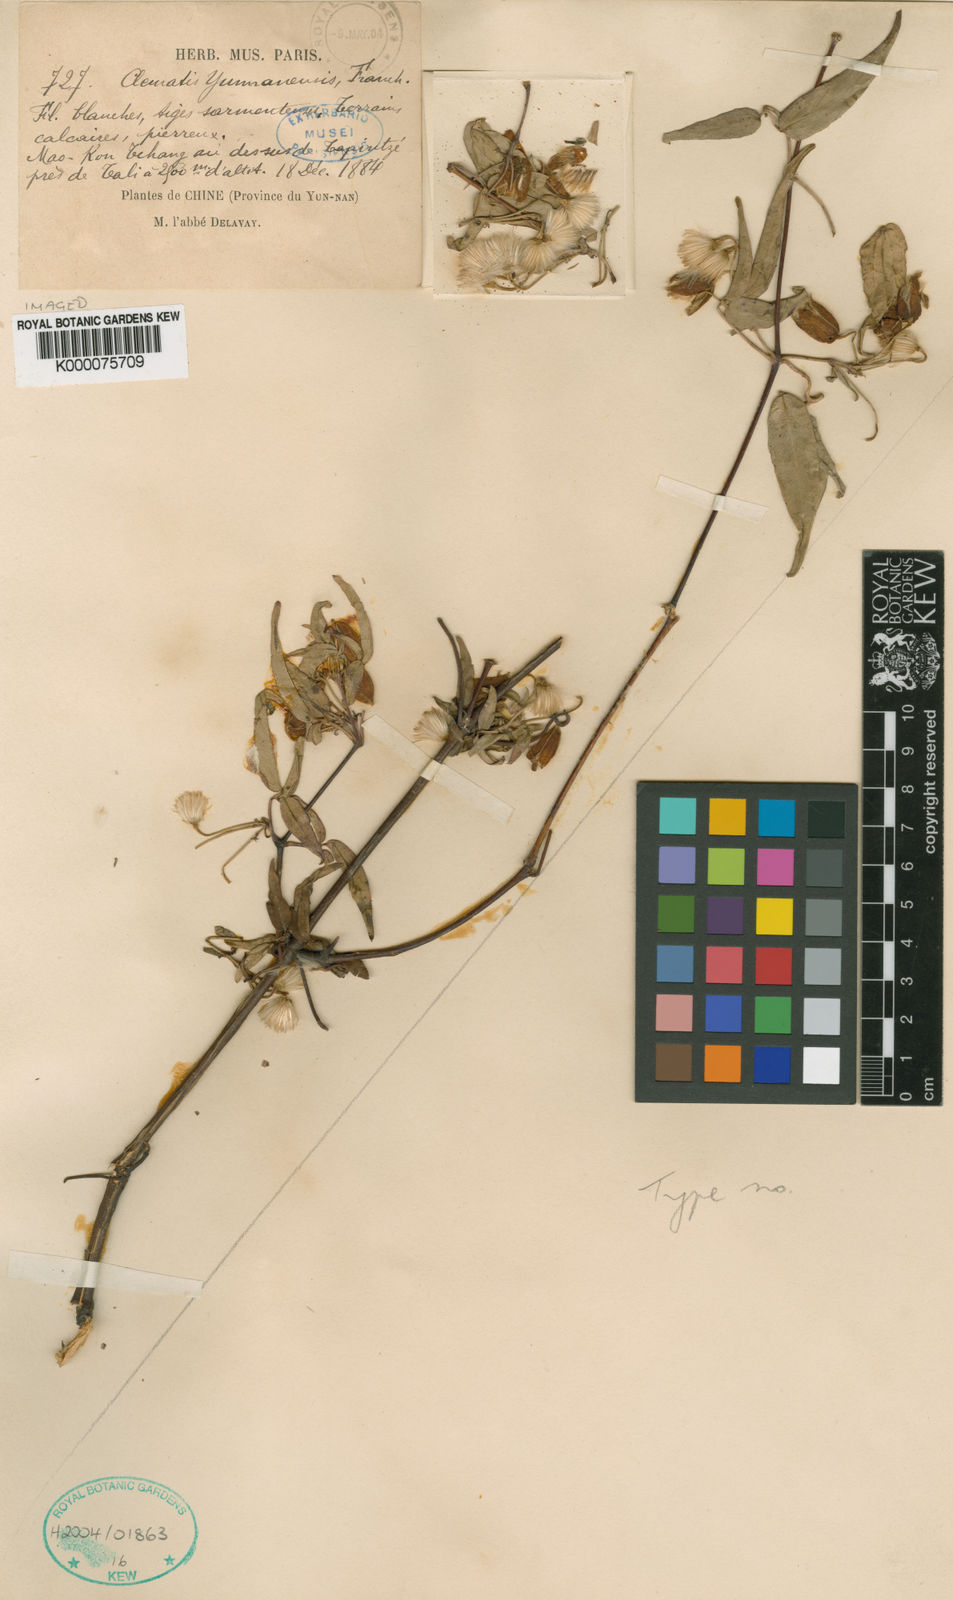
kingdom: Plantae
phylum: Tracheophyta
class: Magnoliopsida
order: Ranunculales
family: Ranunculaceae
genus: Clematis
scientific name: Clematis yunnanensis
